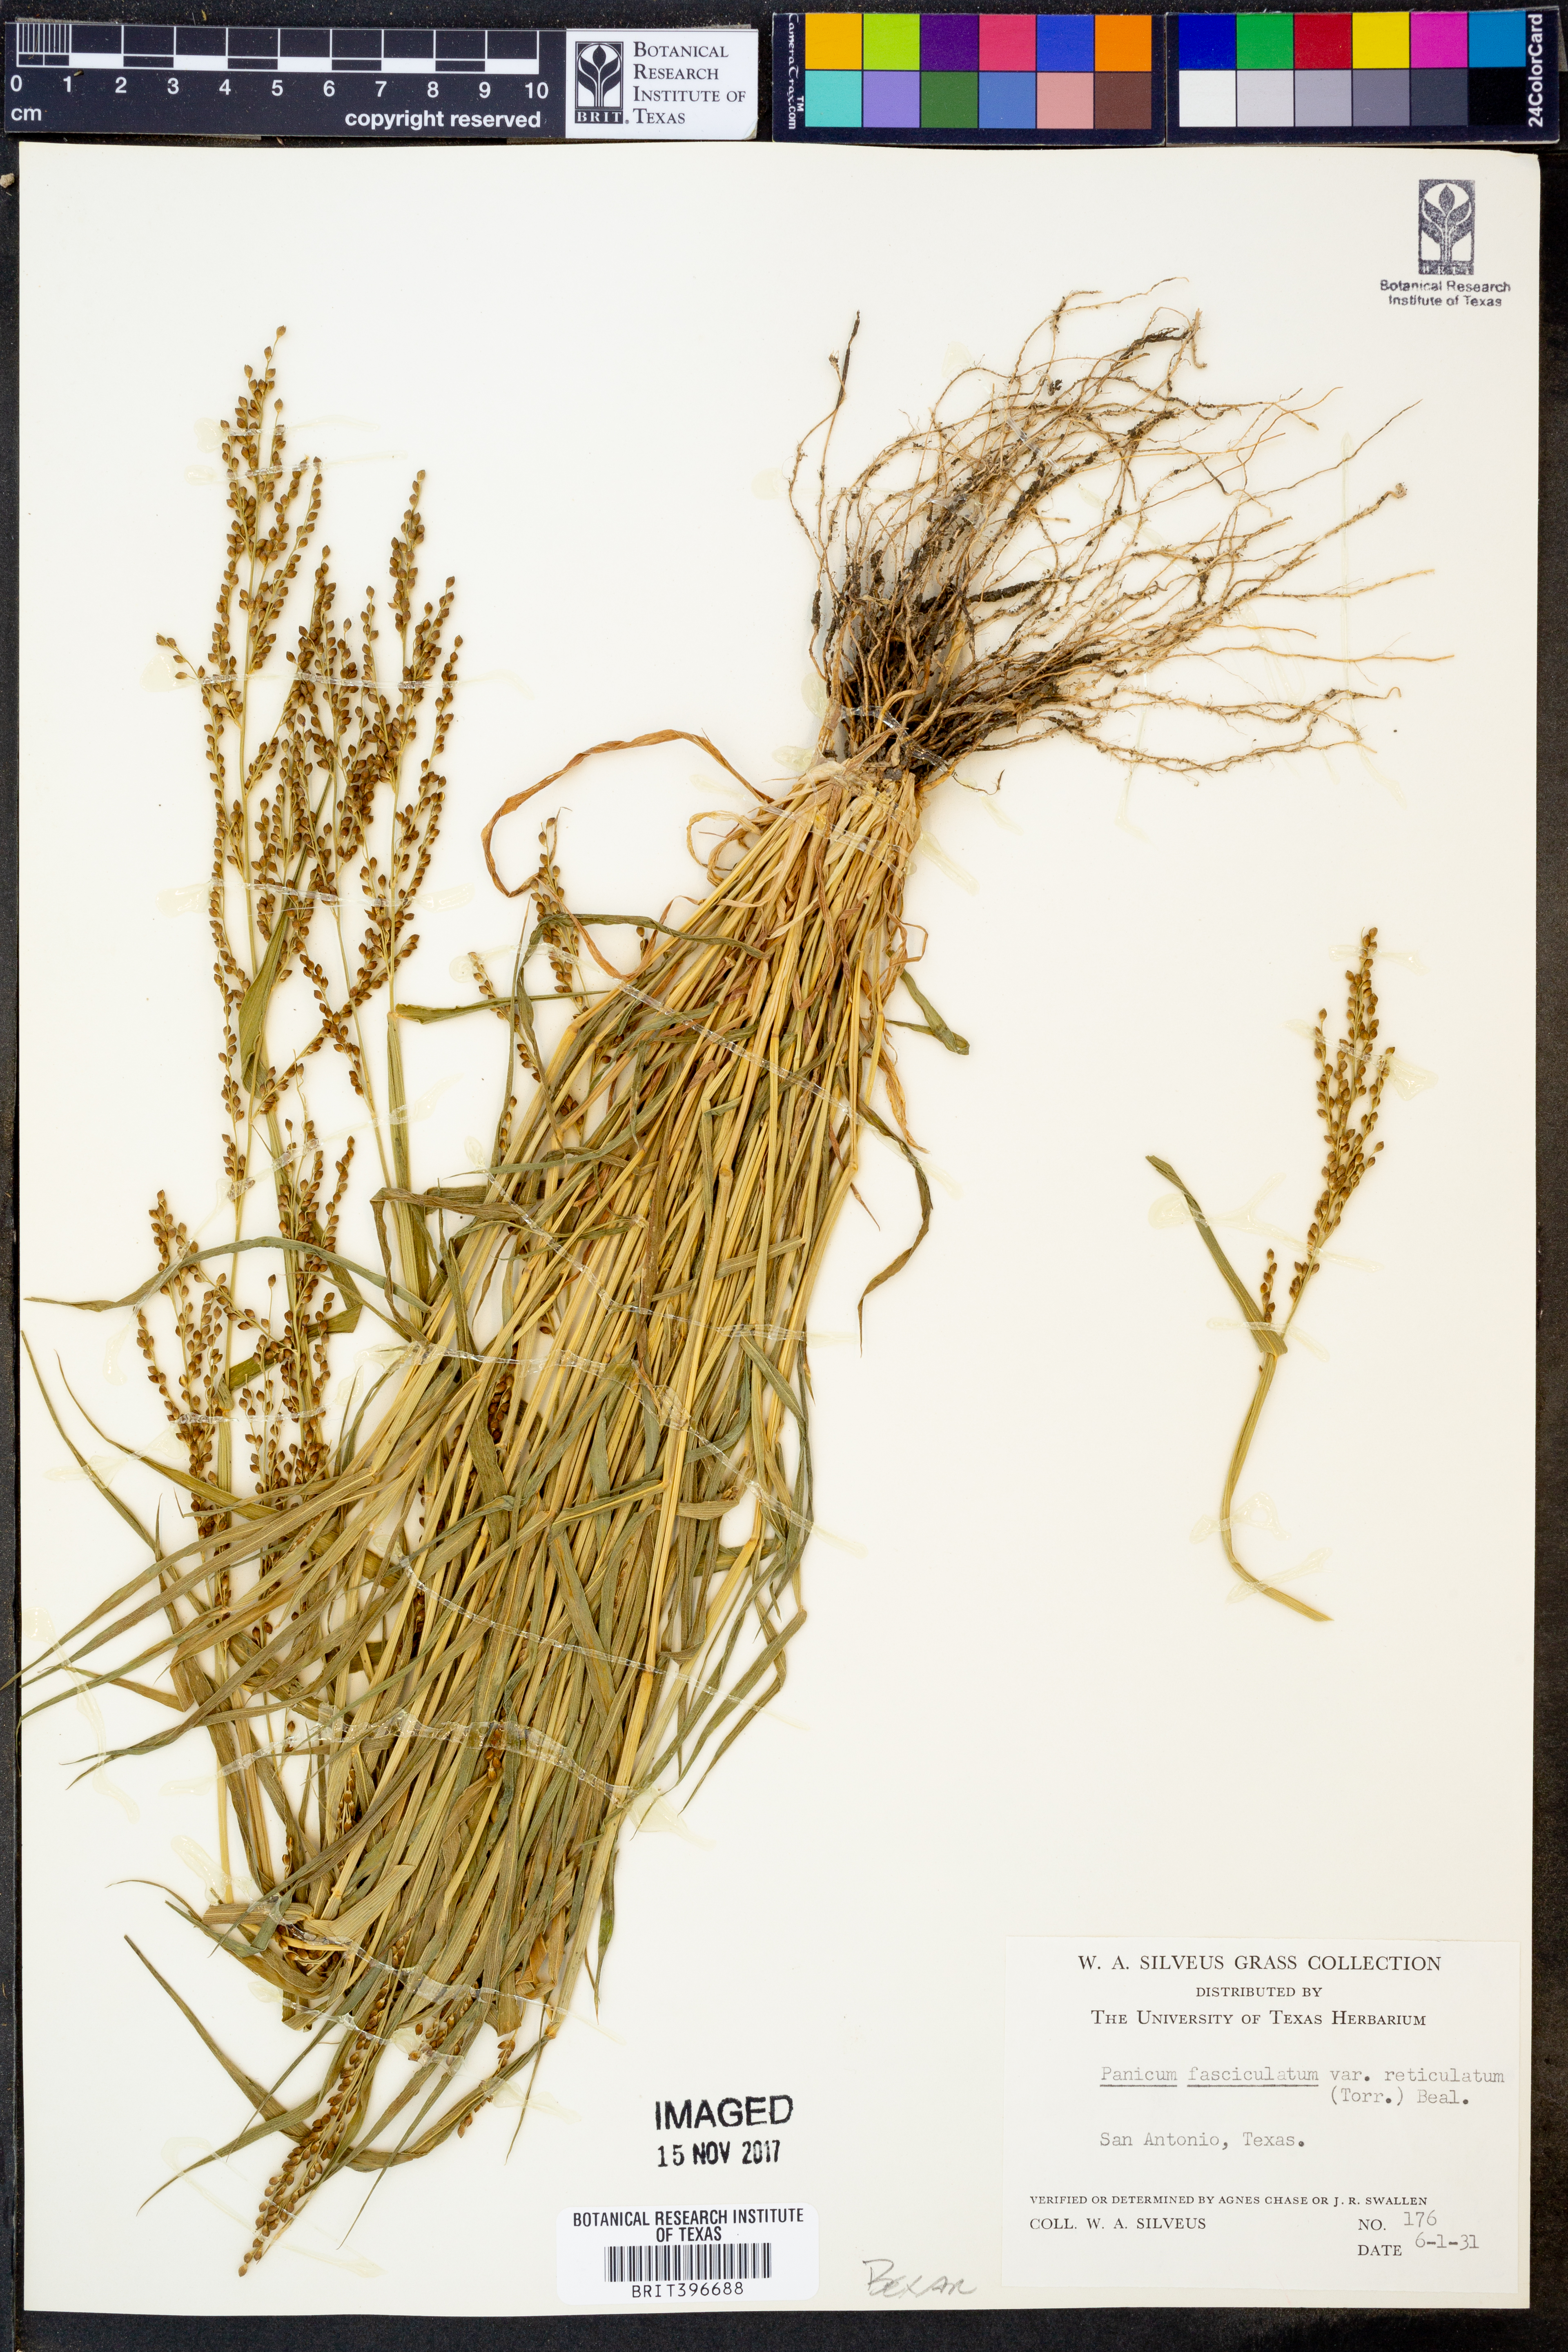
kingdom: Plantae
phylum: Tracheophyta
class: Liliopsida
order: Poales
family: Poaceae
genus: Urochloa
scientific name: Urochloa fusca
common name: Browntop signal grass
